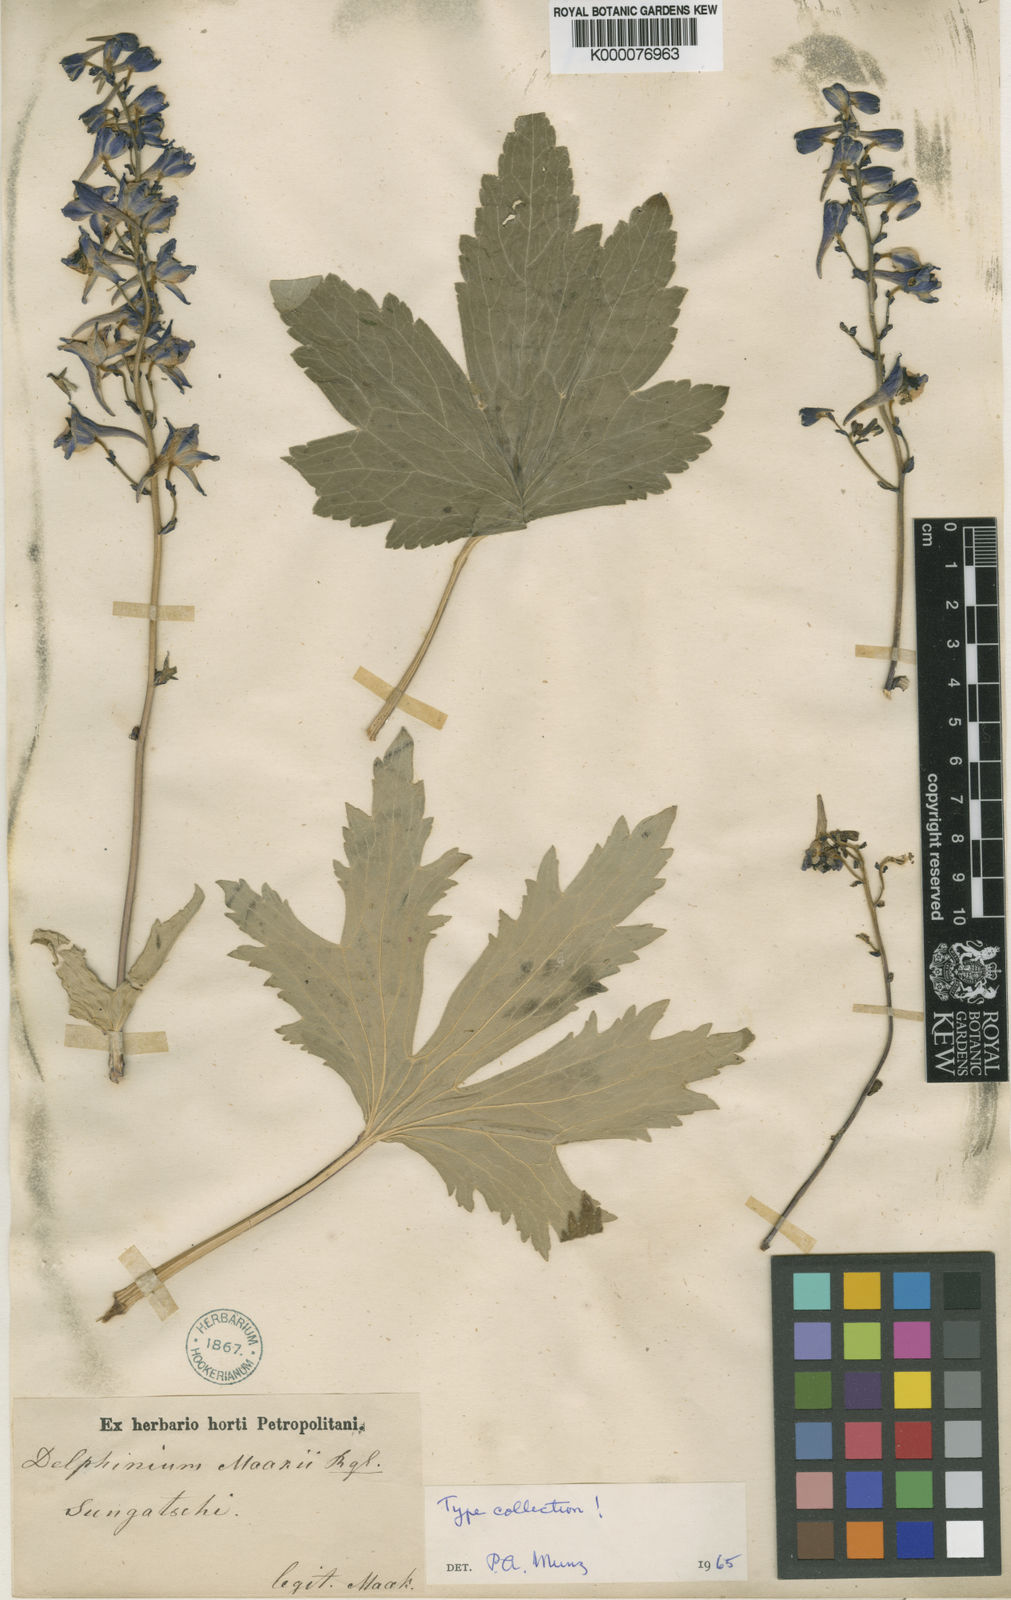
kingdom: Plantae
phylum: Tracheophyta
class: Magnoliopsida
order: Ranunculales
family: Ranunculaceae
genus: Delphinium
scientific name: Delphinium maackianum
